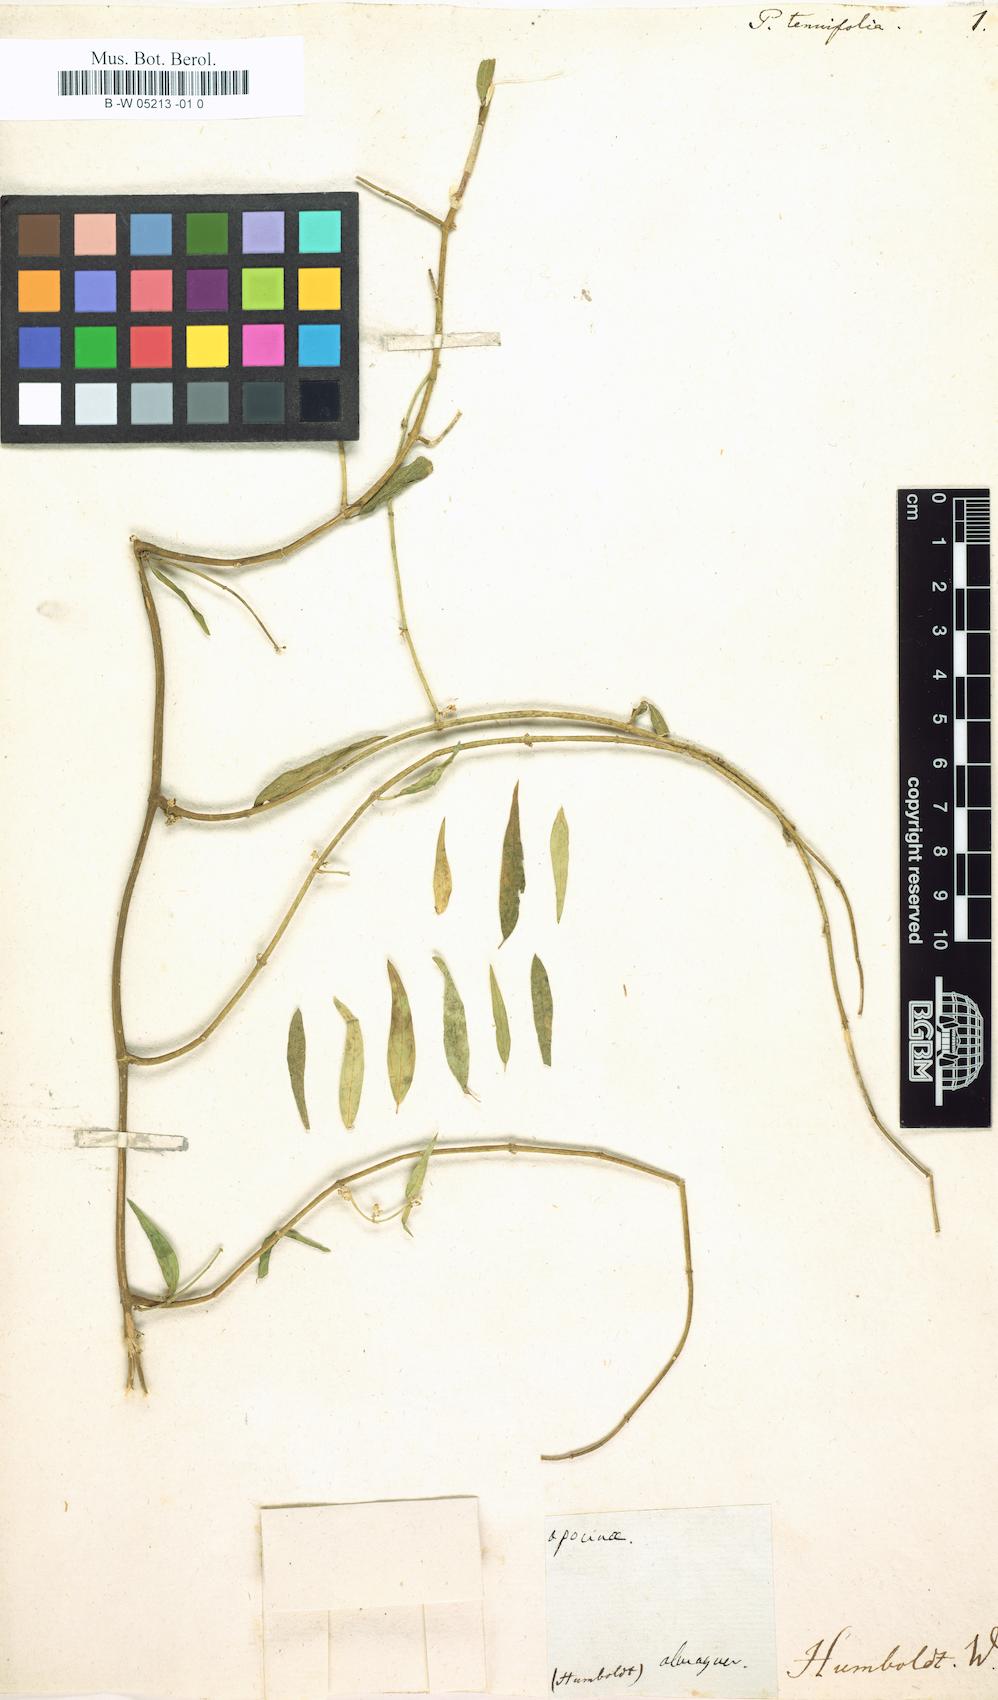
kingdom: Plantae
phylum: Tracheophyta
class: Magnoliopsida
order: Gentianales
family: Apocynaceae
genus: Gymnema
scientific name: Gymnema sylvestre
